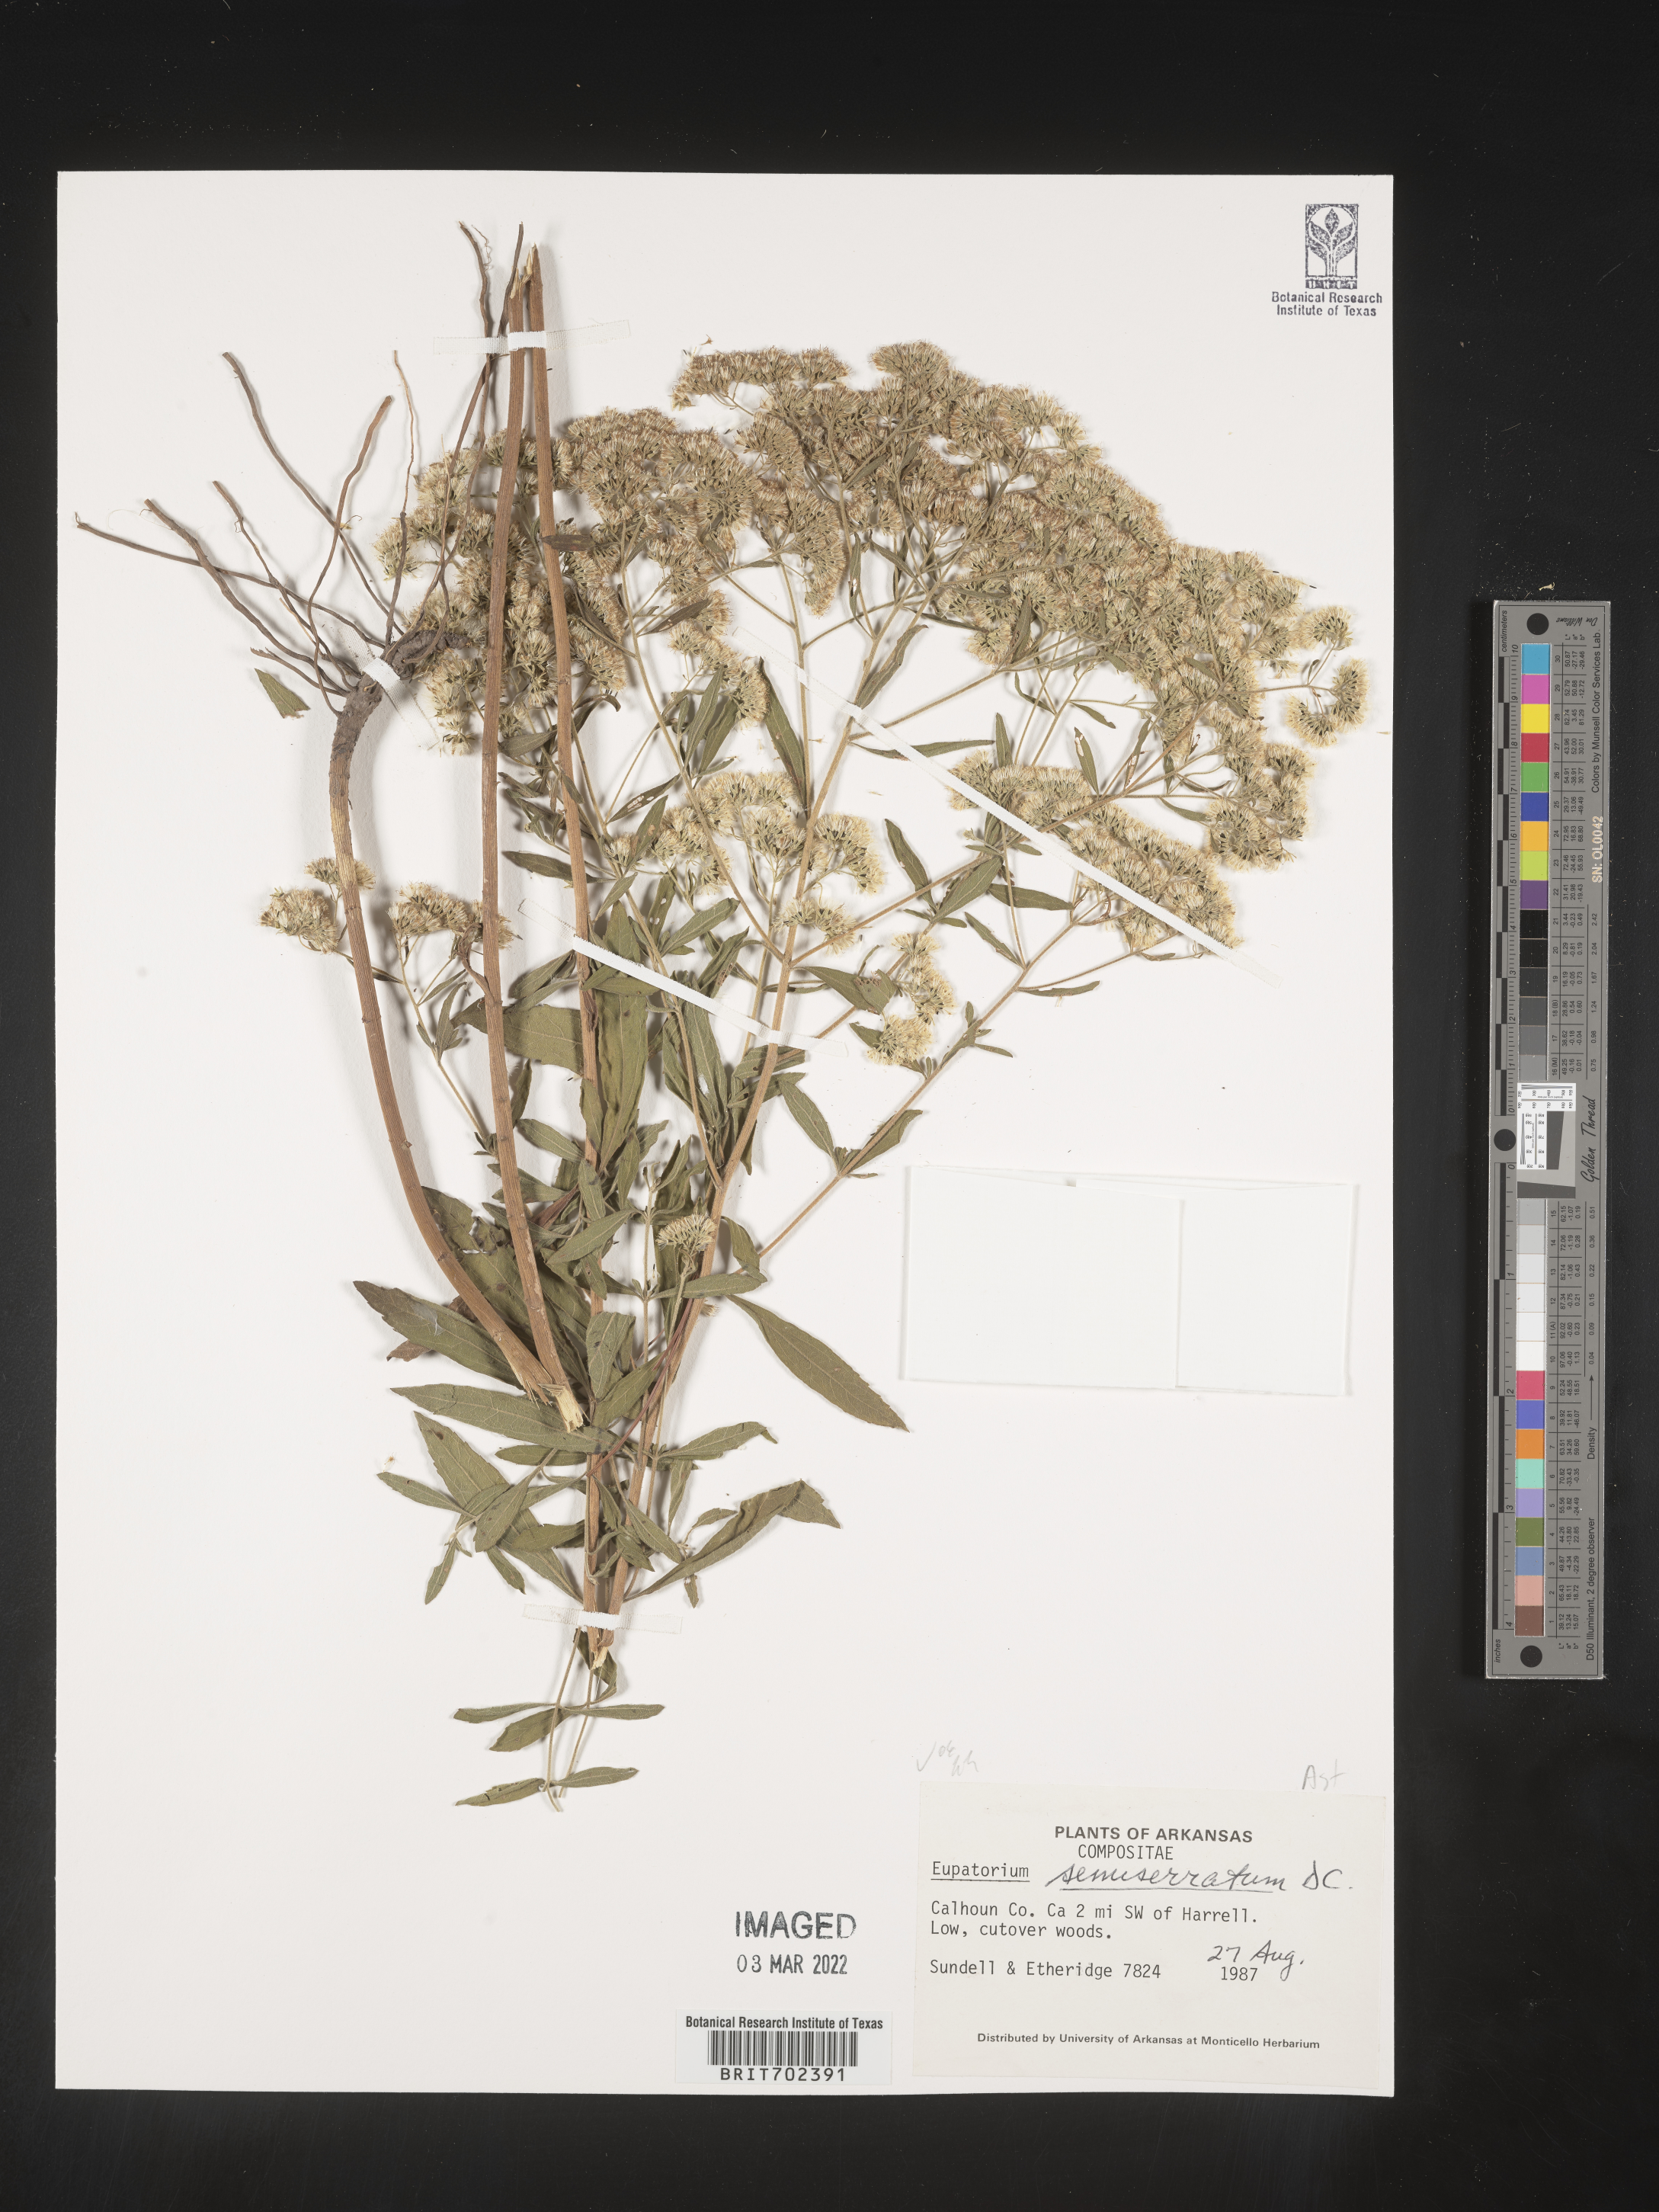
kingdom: Plantae
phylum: Tracheophyta
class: Magnoliopsida
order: Asterales
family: Asteraceae
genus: Eupatorium
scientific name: Eupatorium semiserratum
